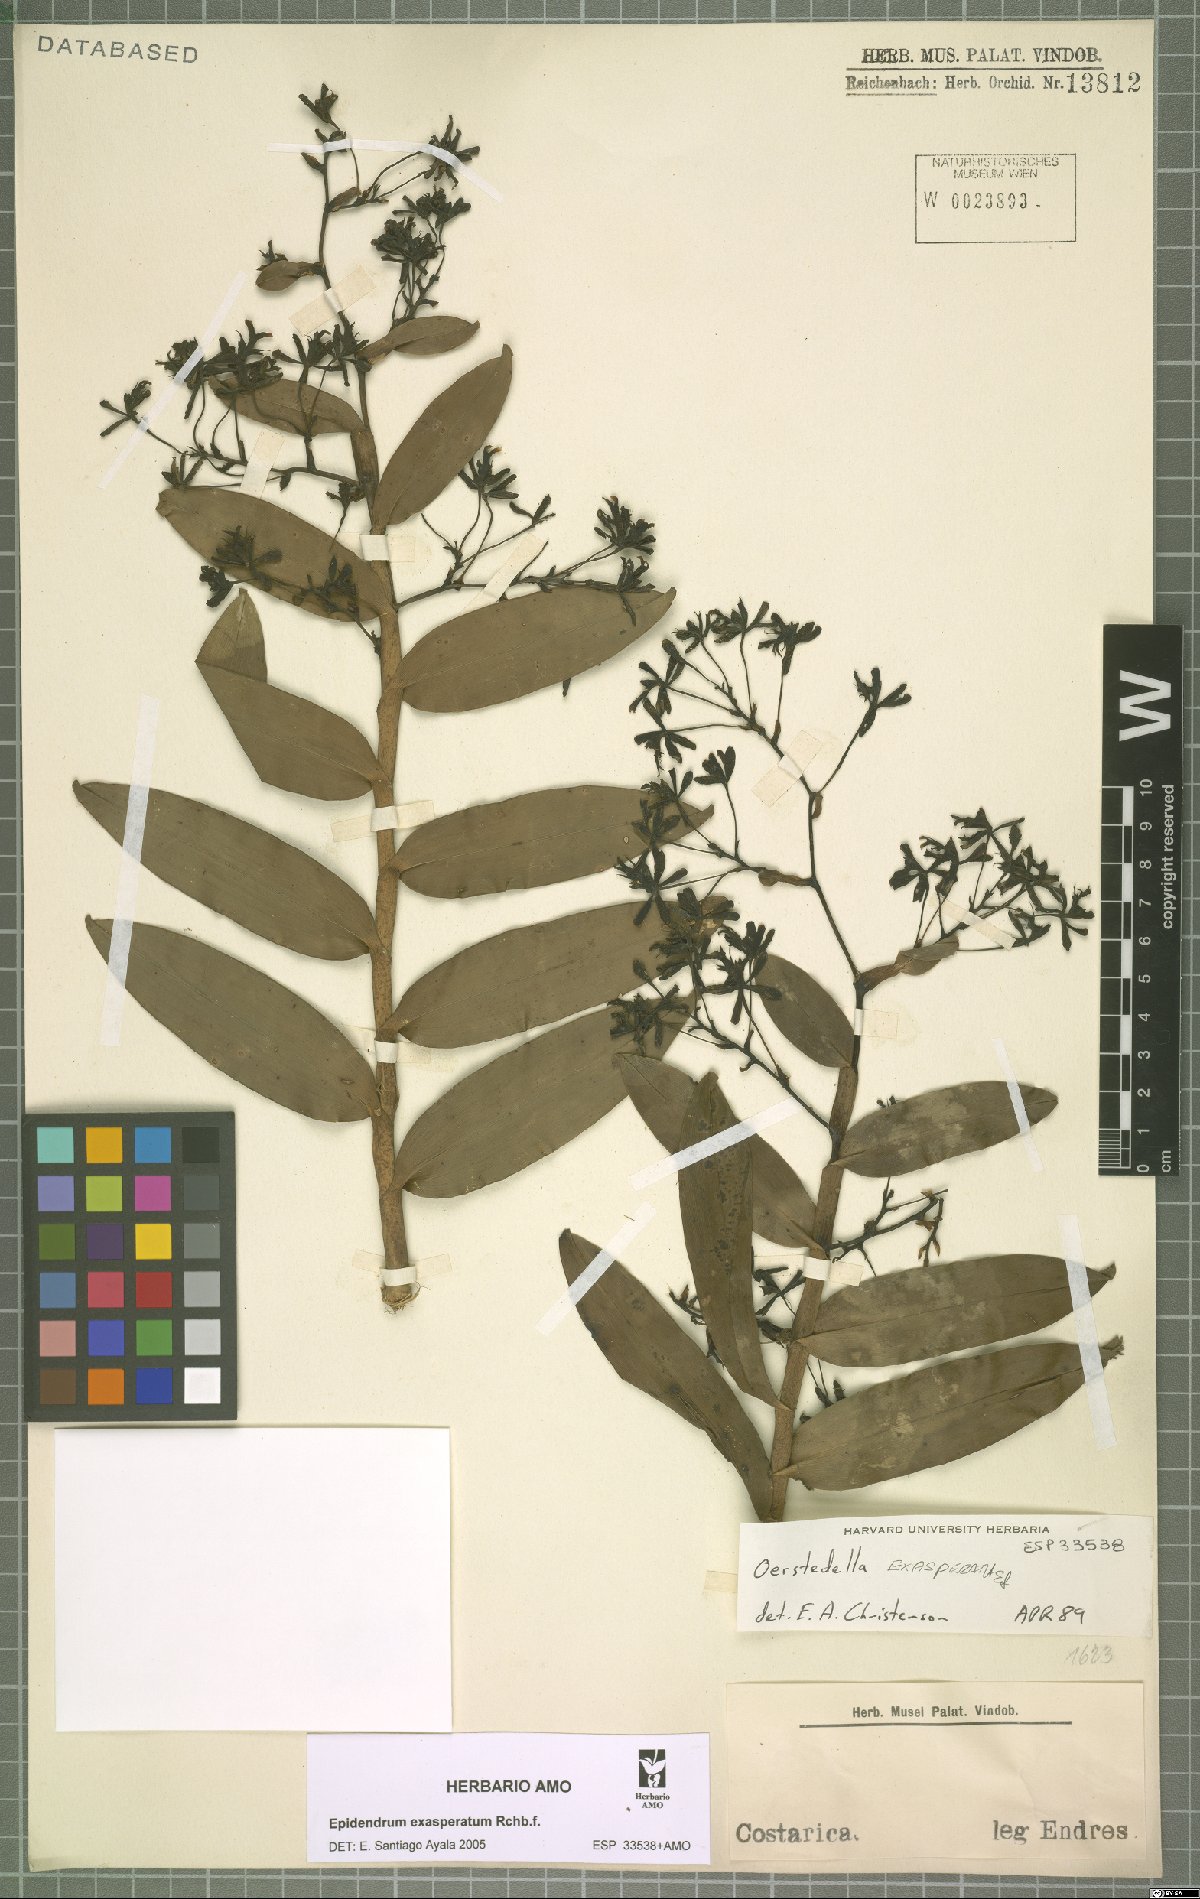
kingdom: Plantae
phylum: Tracheophyta
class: Liliopsida
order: Asparagales
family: Orchidaceae
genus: Epidendrum
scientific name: Epidendrum exasperatum
